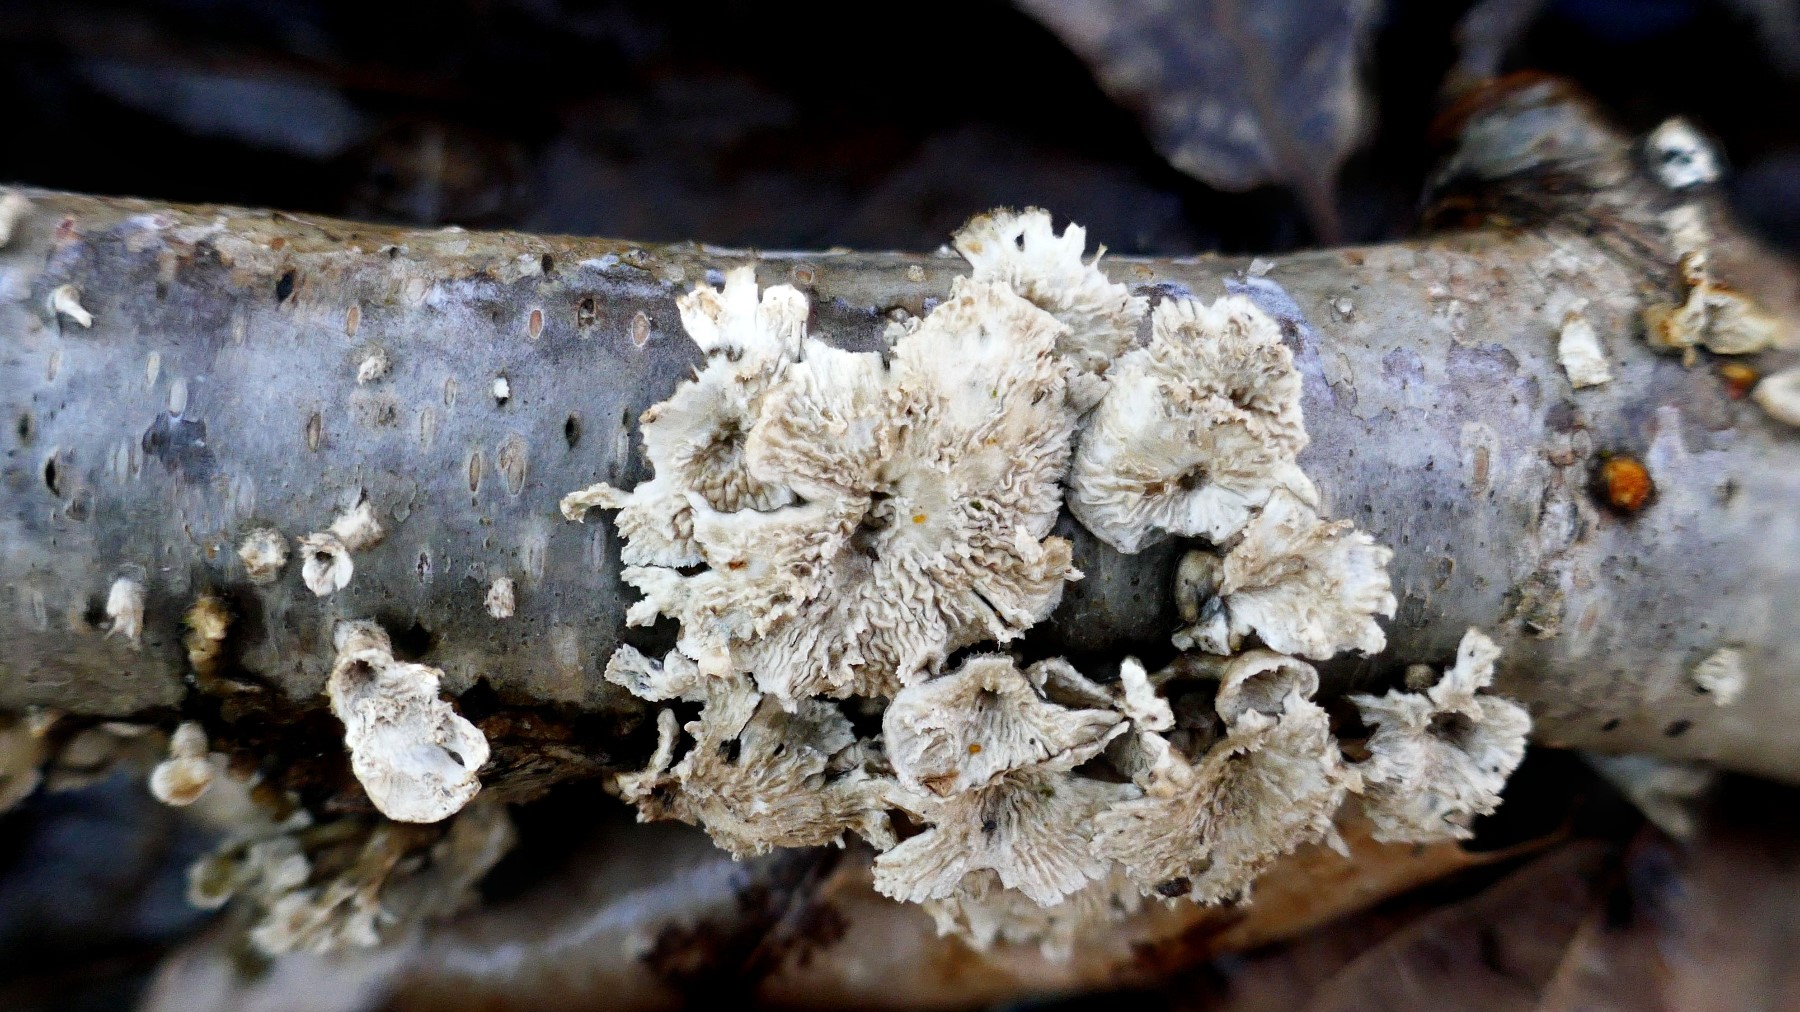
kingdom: Fungi
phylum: Basidiomycota
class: Agaricomycetes
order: Amylocorticiales
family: Amylocorticiaceae
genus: Plicaturopsis
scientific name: Plicaturopsis crispa
